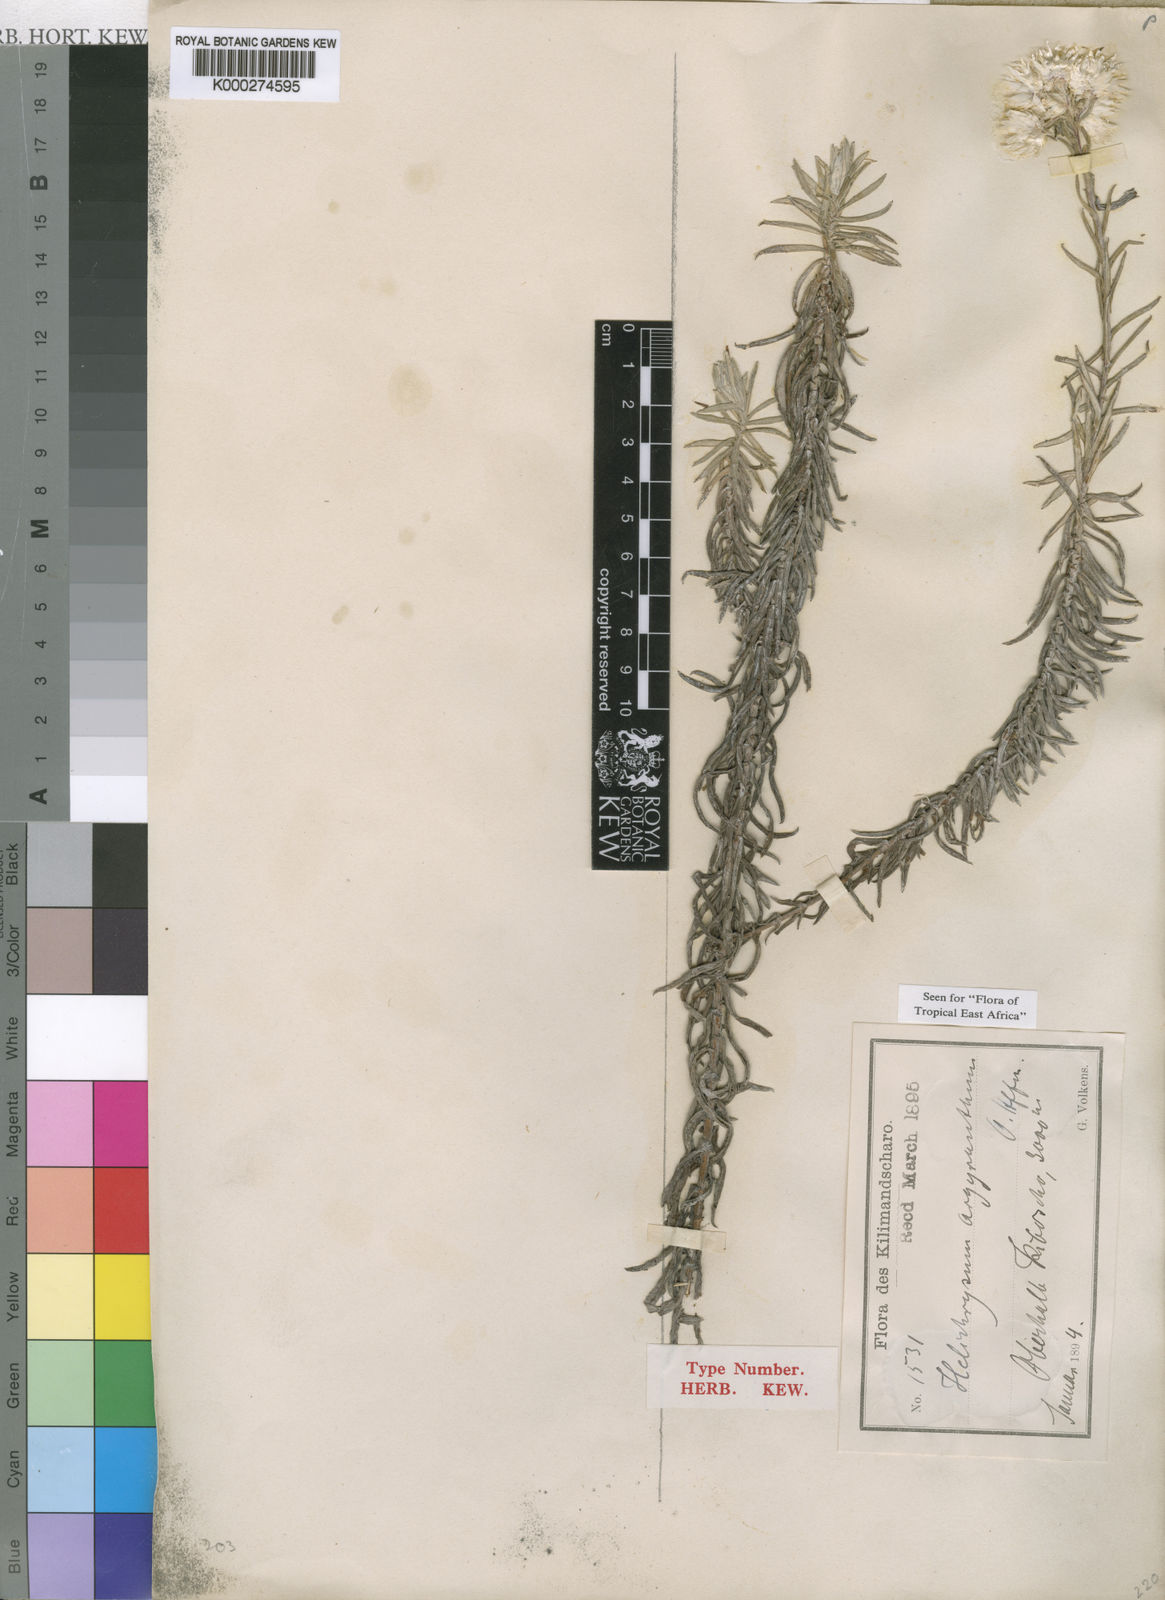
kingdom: Plantae
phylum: Tracheophyta
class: Magnoliopsida
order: Asterales
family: Asteraceae
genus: Helichrysum
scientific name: Helichrysum argyranthum
